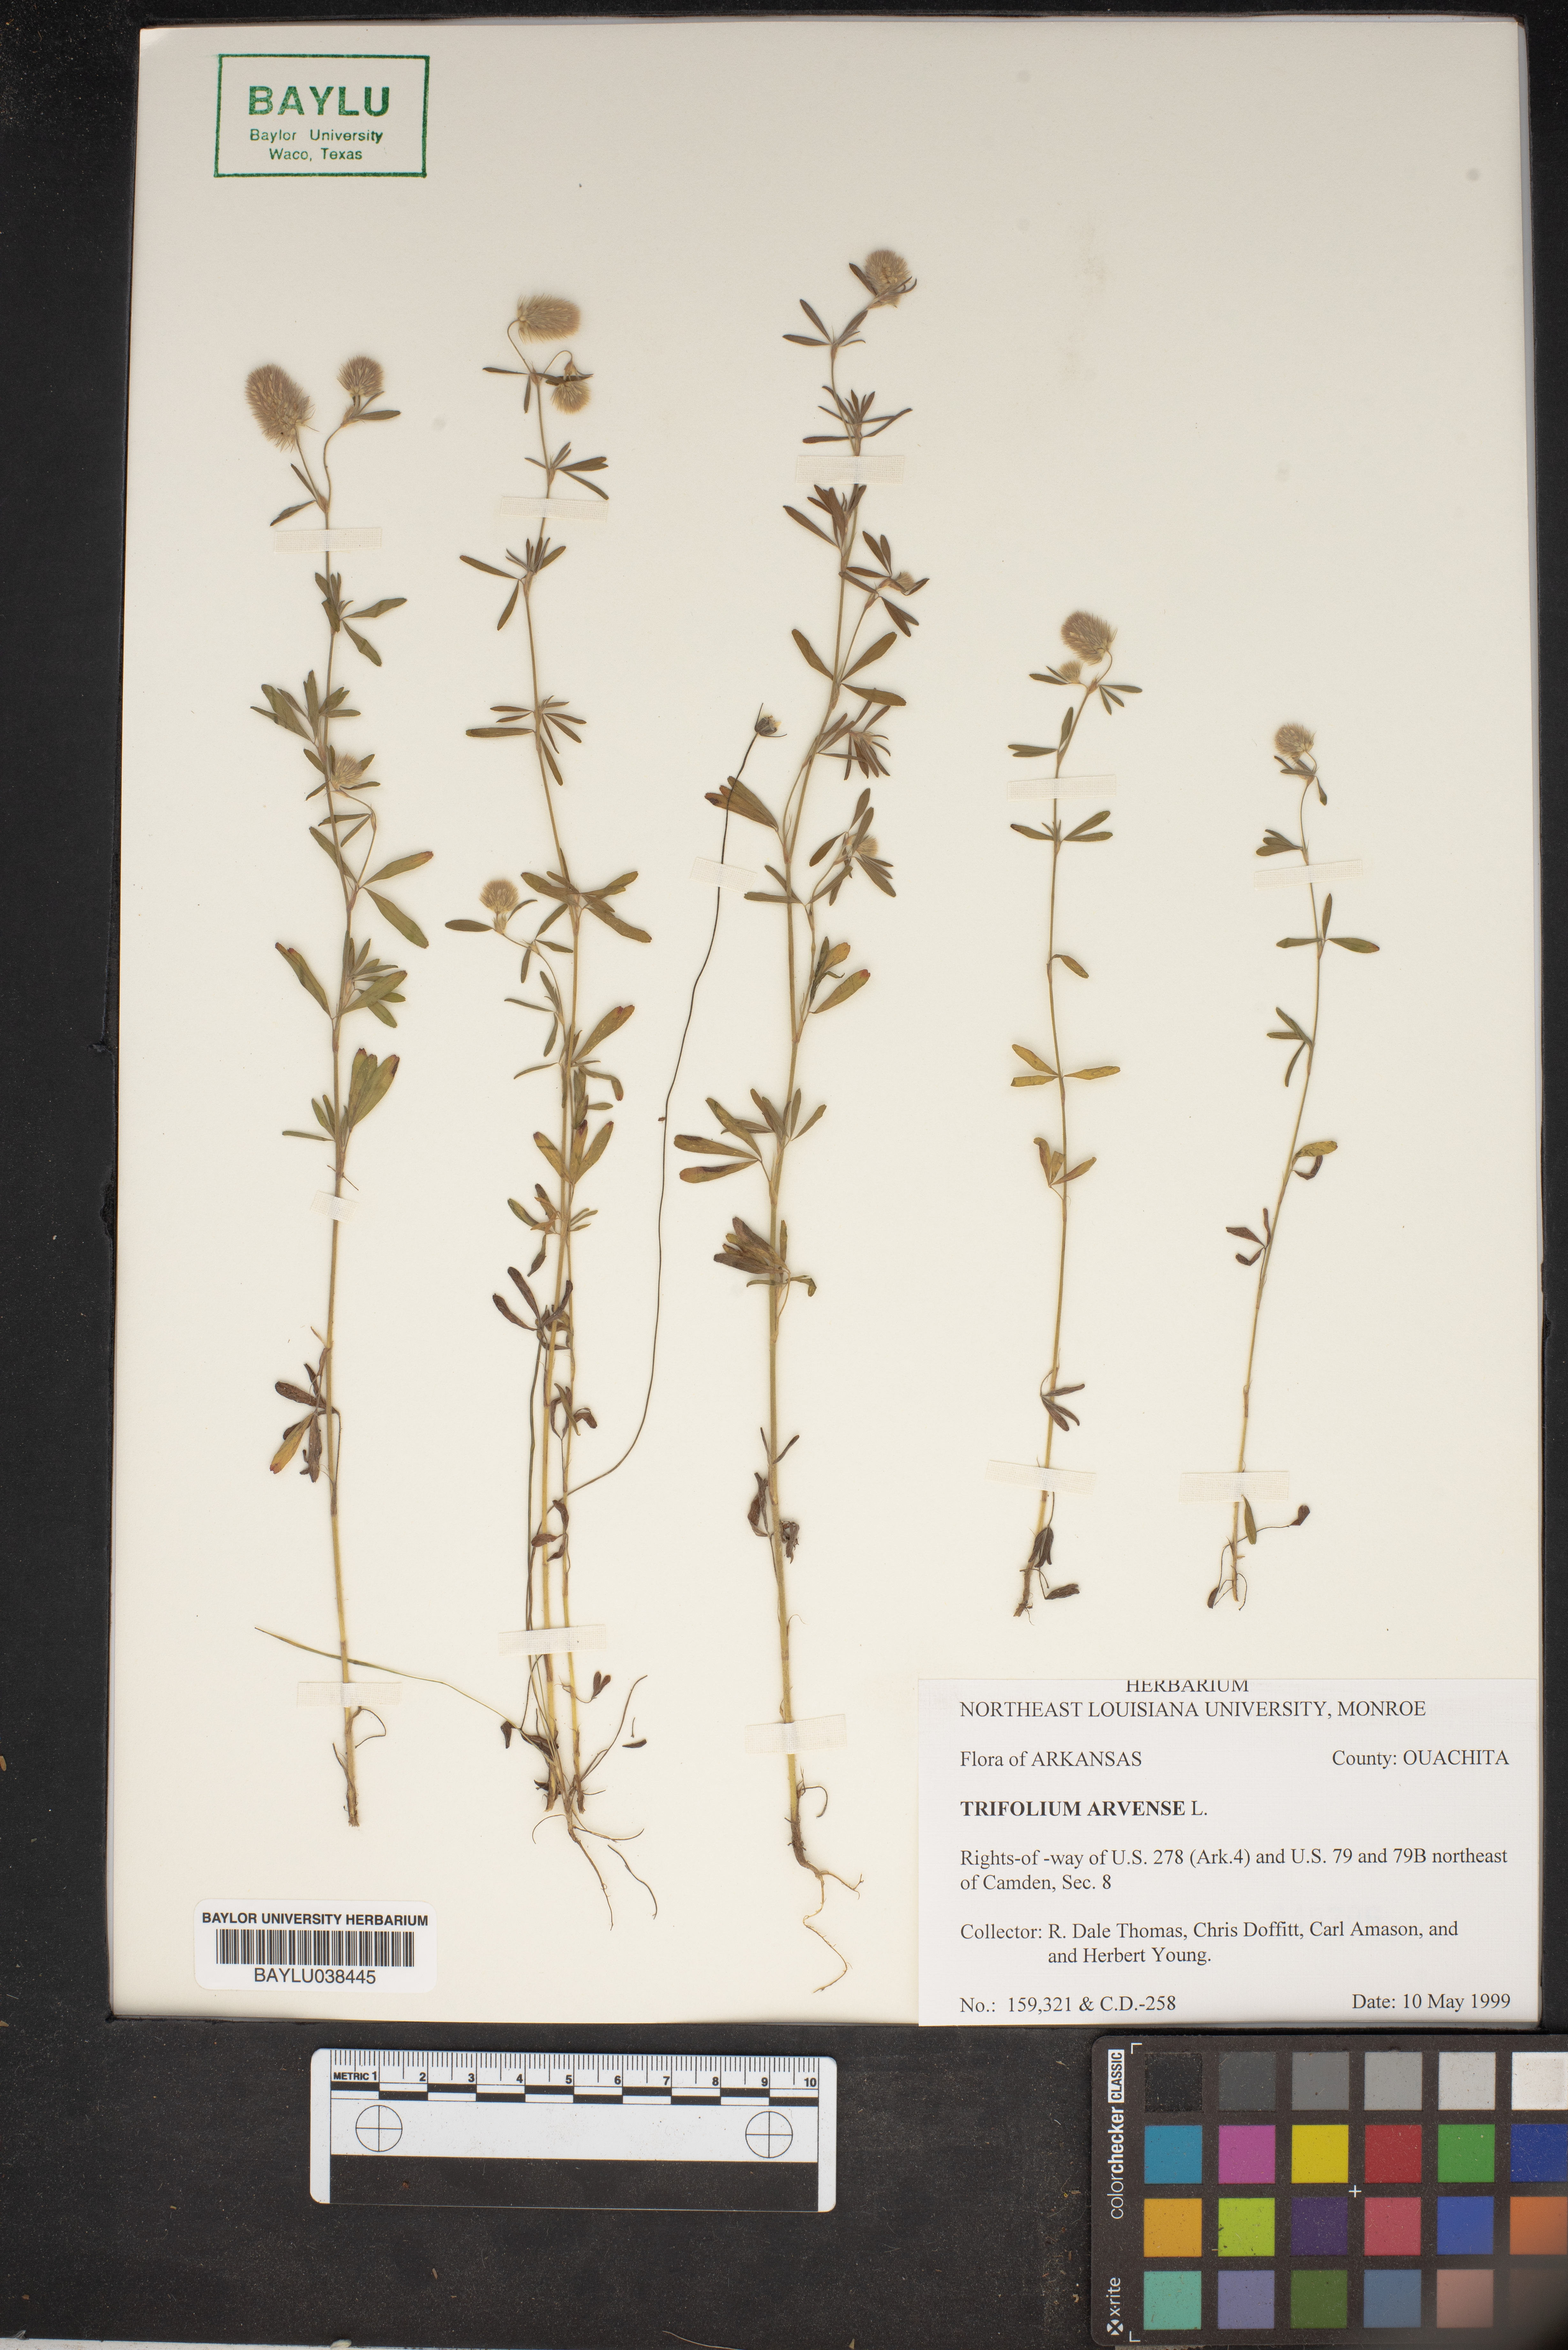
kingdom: Plantae
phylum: Tracheophyta
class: Magnoliopsida
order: Fabales
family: Fabaceae
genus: Trifolium
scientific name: Trifolium arvense
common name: Hare's-foot clover
